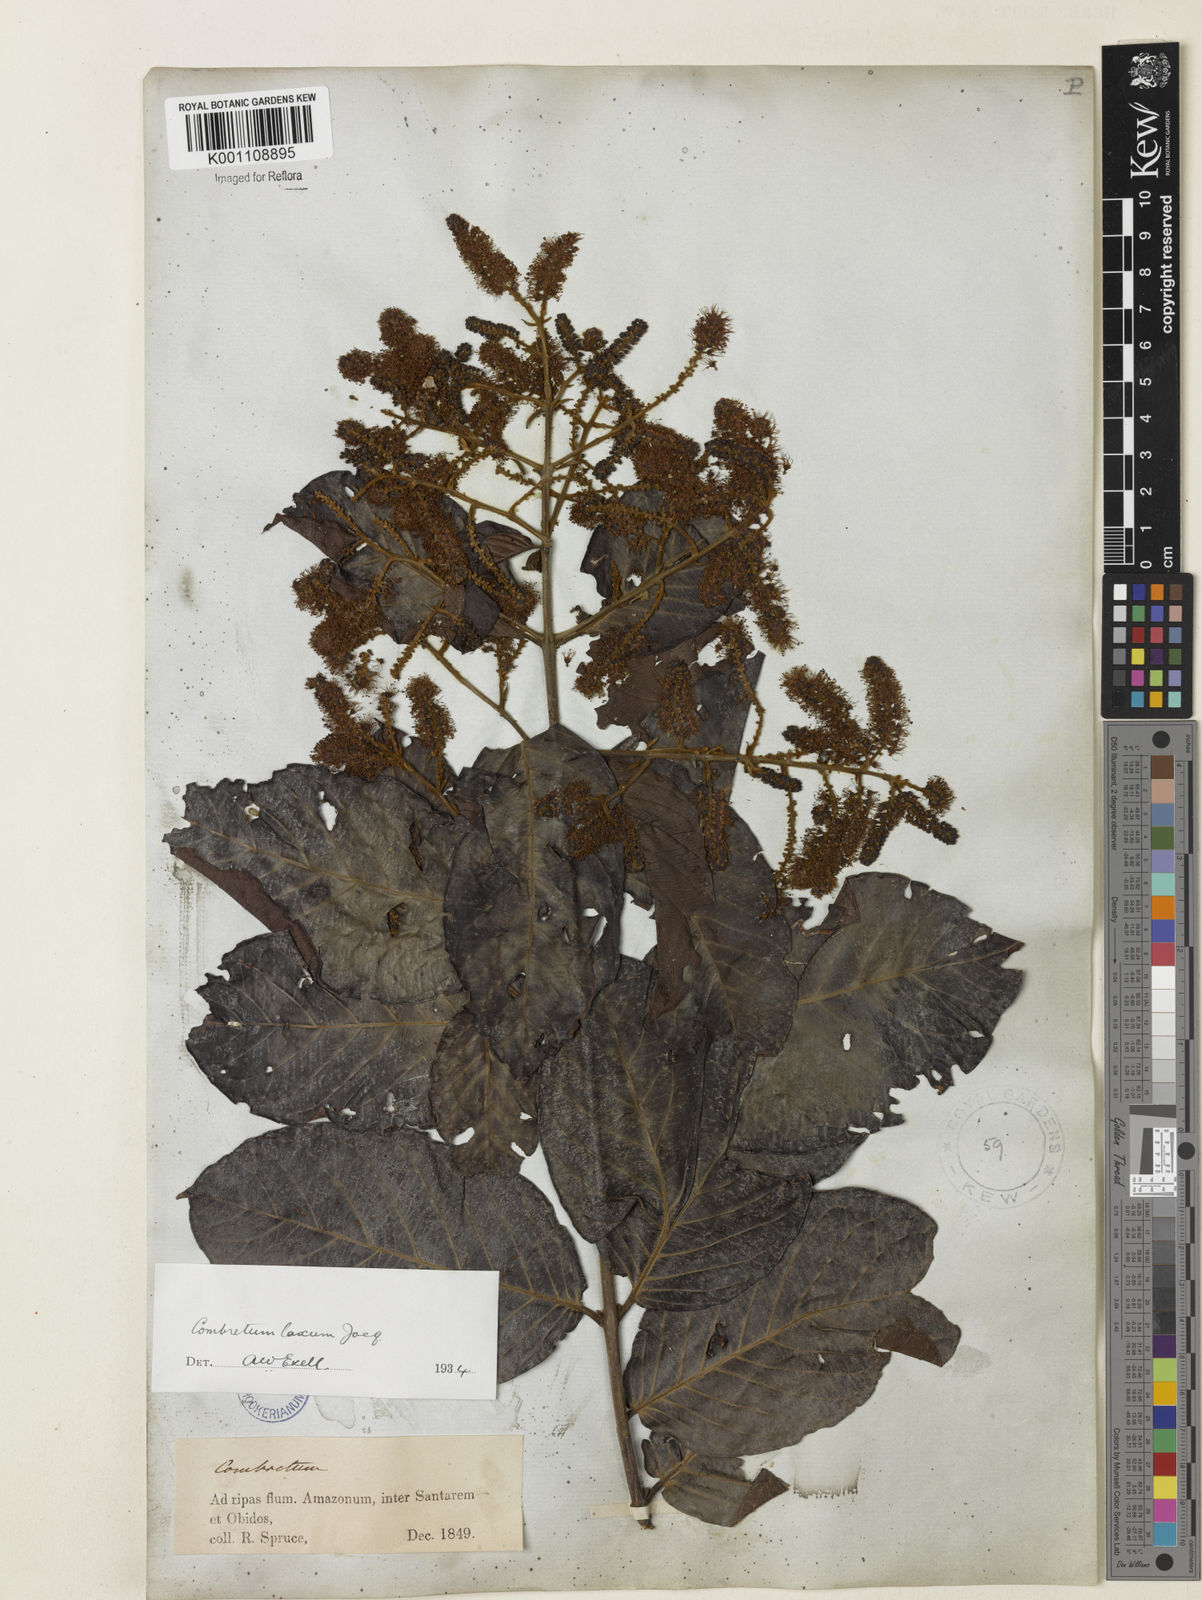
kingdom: Plantae
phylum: Tracheophyta
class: Magnoliopsida
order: Myrtales
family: Combretaceae
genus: Combretum
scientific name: Combretum laxum
